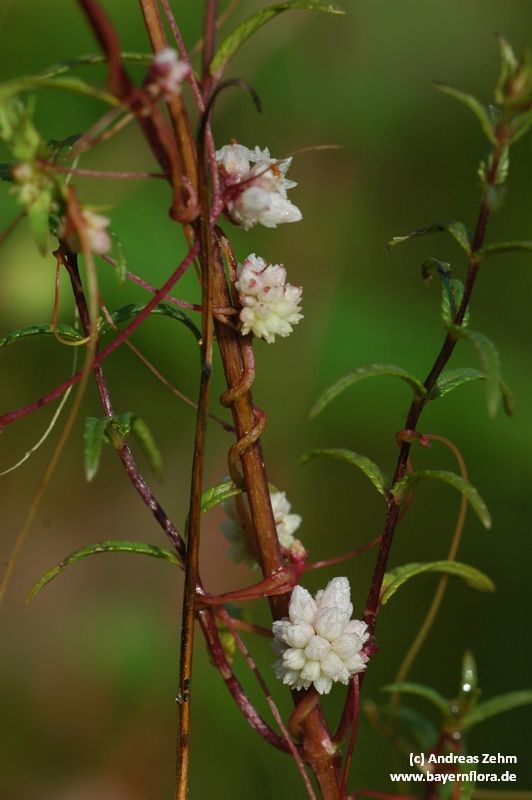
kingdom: Plantae
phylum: Tracheophyta
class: Magnoliopsida
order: Solanales
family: Convolvulaceae
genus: Cuscuta
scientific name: Cuscuta epithymum
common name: Clover dodder
